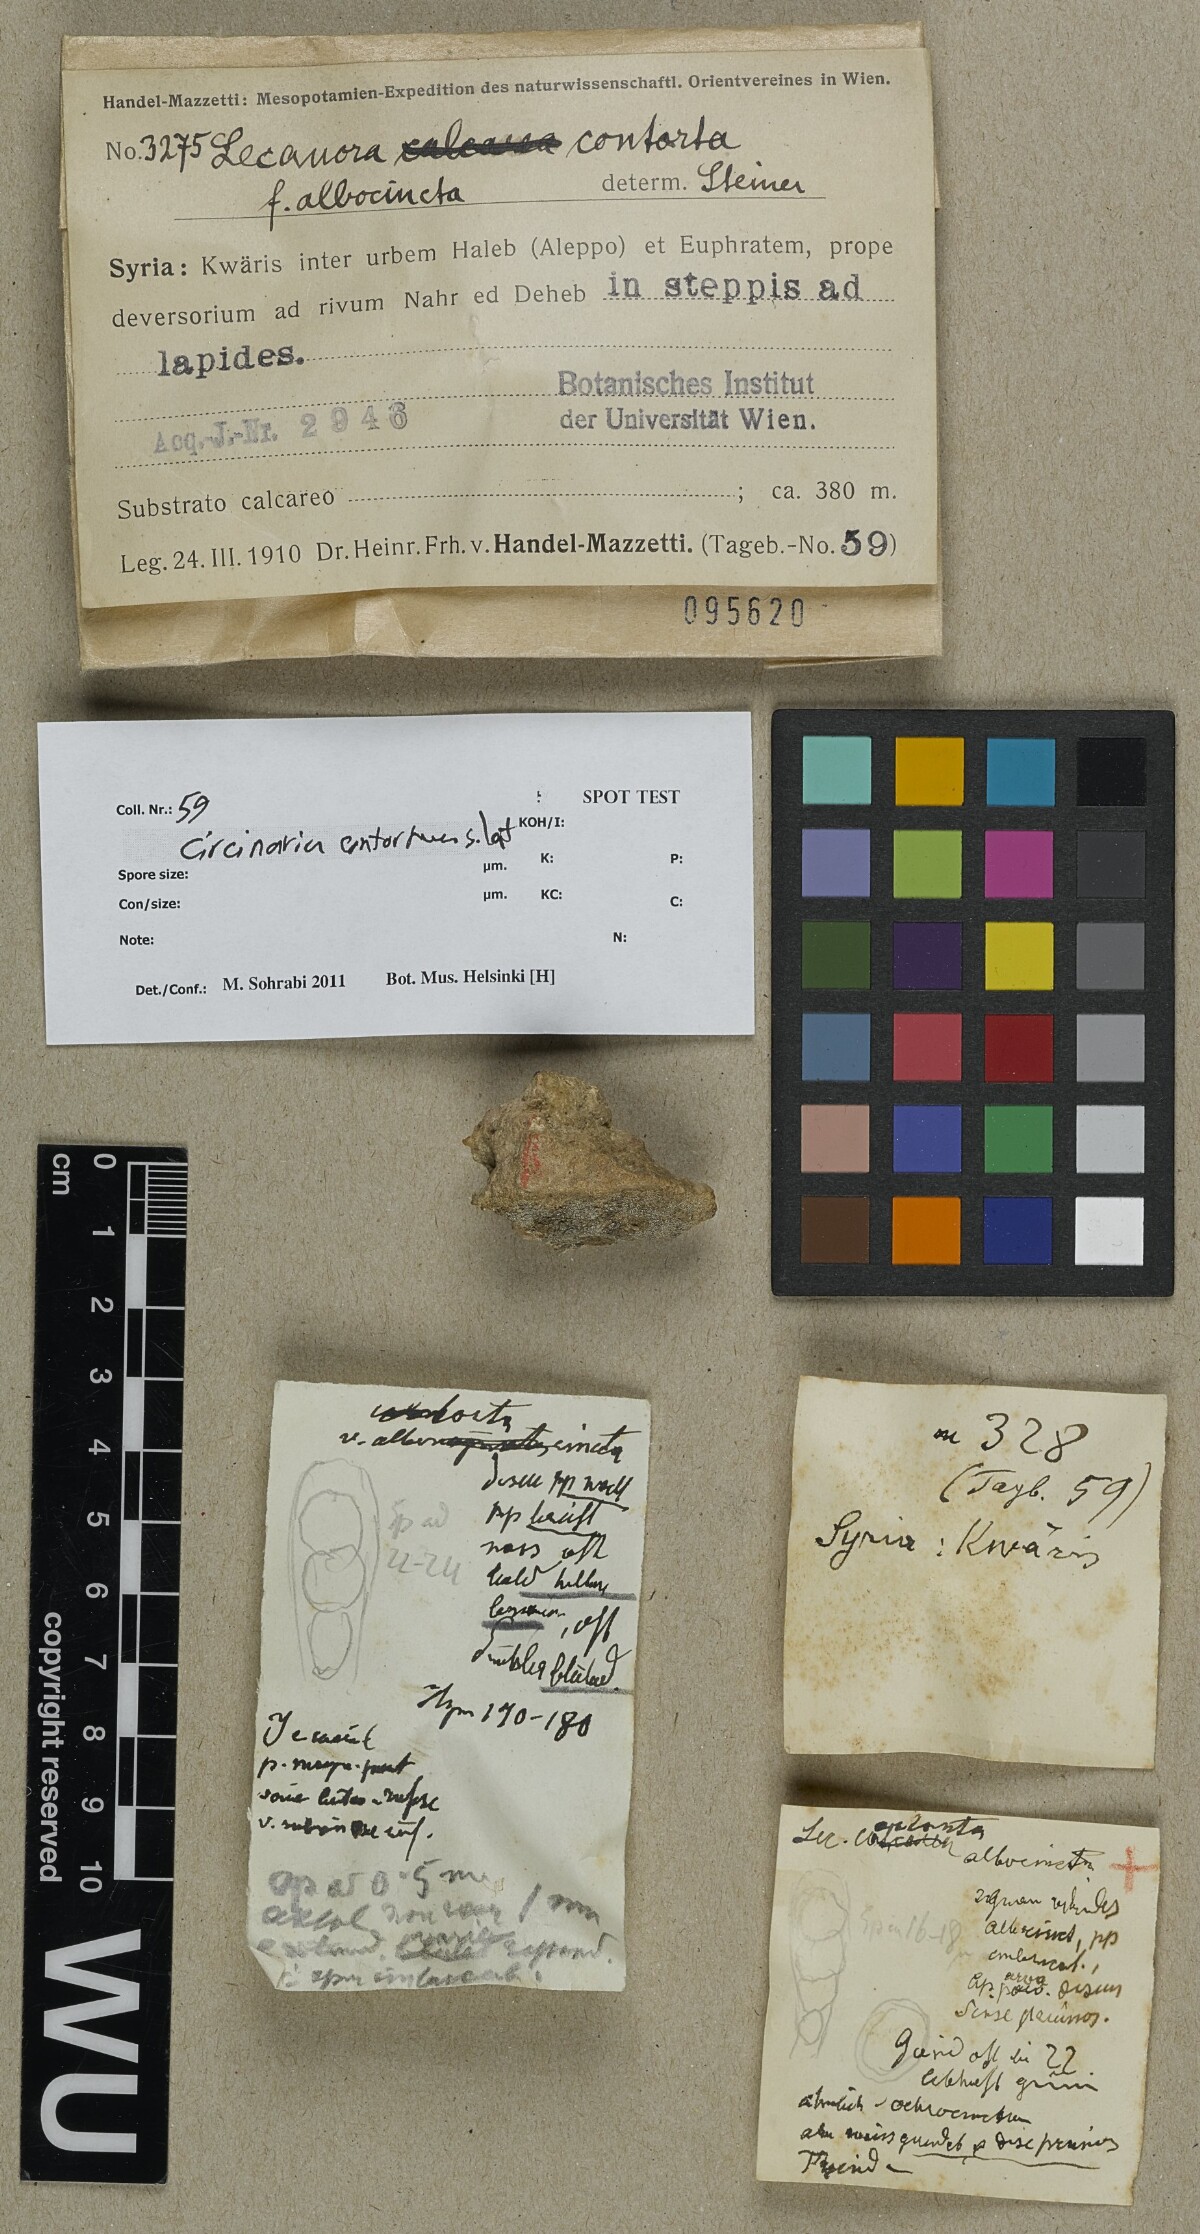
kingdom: Fungi
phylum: Ascomycota
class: Lecanoromycetes
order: Pertusariales
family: Megasporaceae
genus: Circinaria
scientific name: Circinaria contorta
